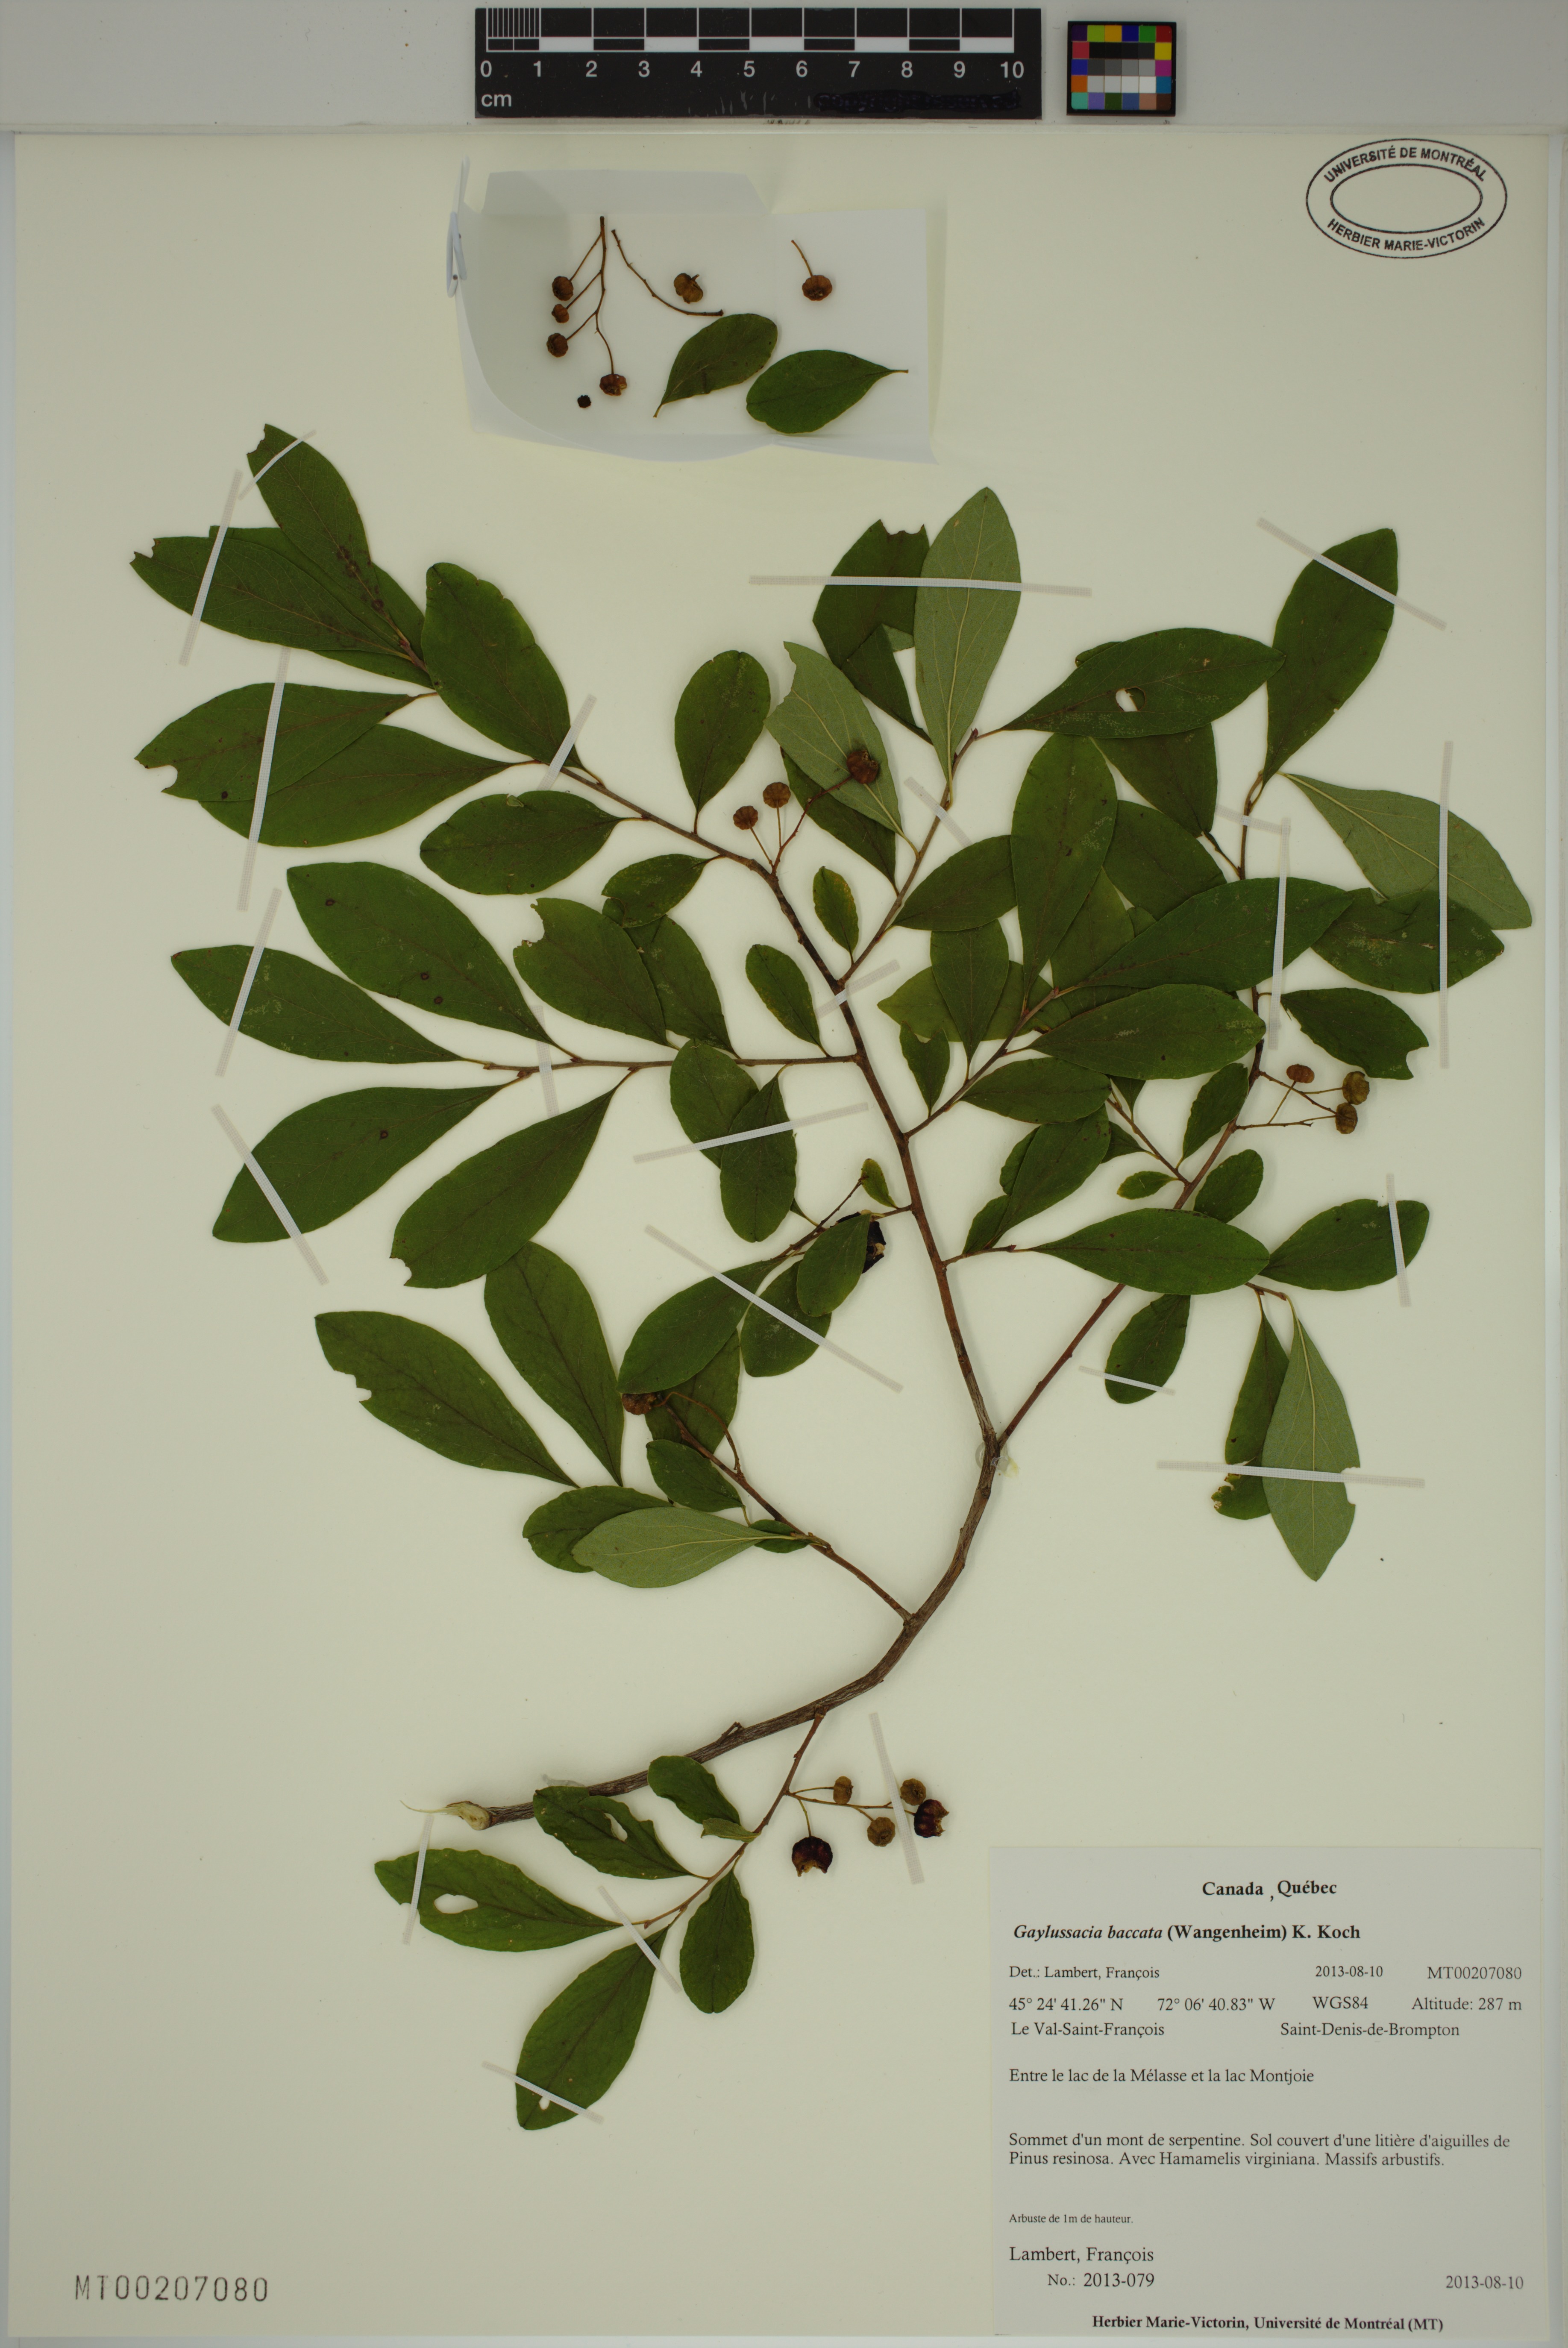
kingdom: Plantae
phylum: Tracheophyta
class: Magnoliopsida
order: Ericales
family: Ericaceae
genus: Gaylussacia
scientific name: Gaylussacia baccata
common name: Black huckleberry
